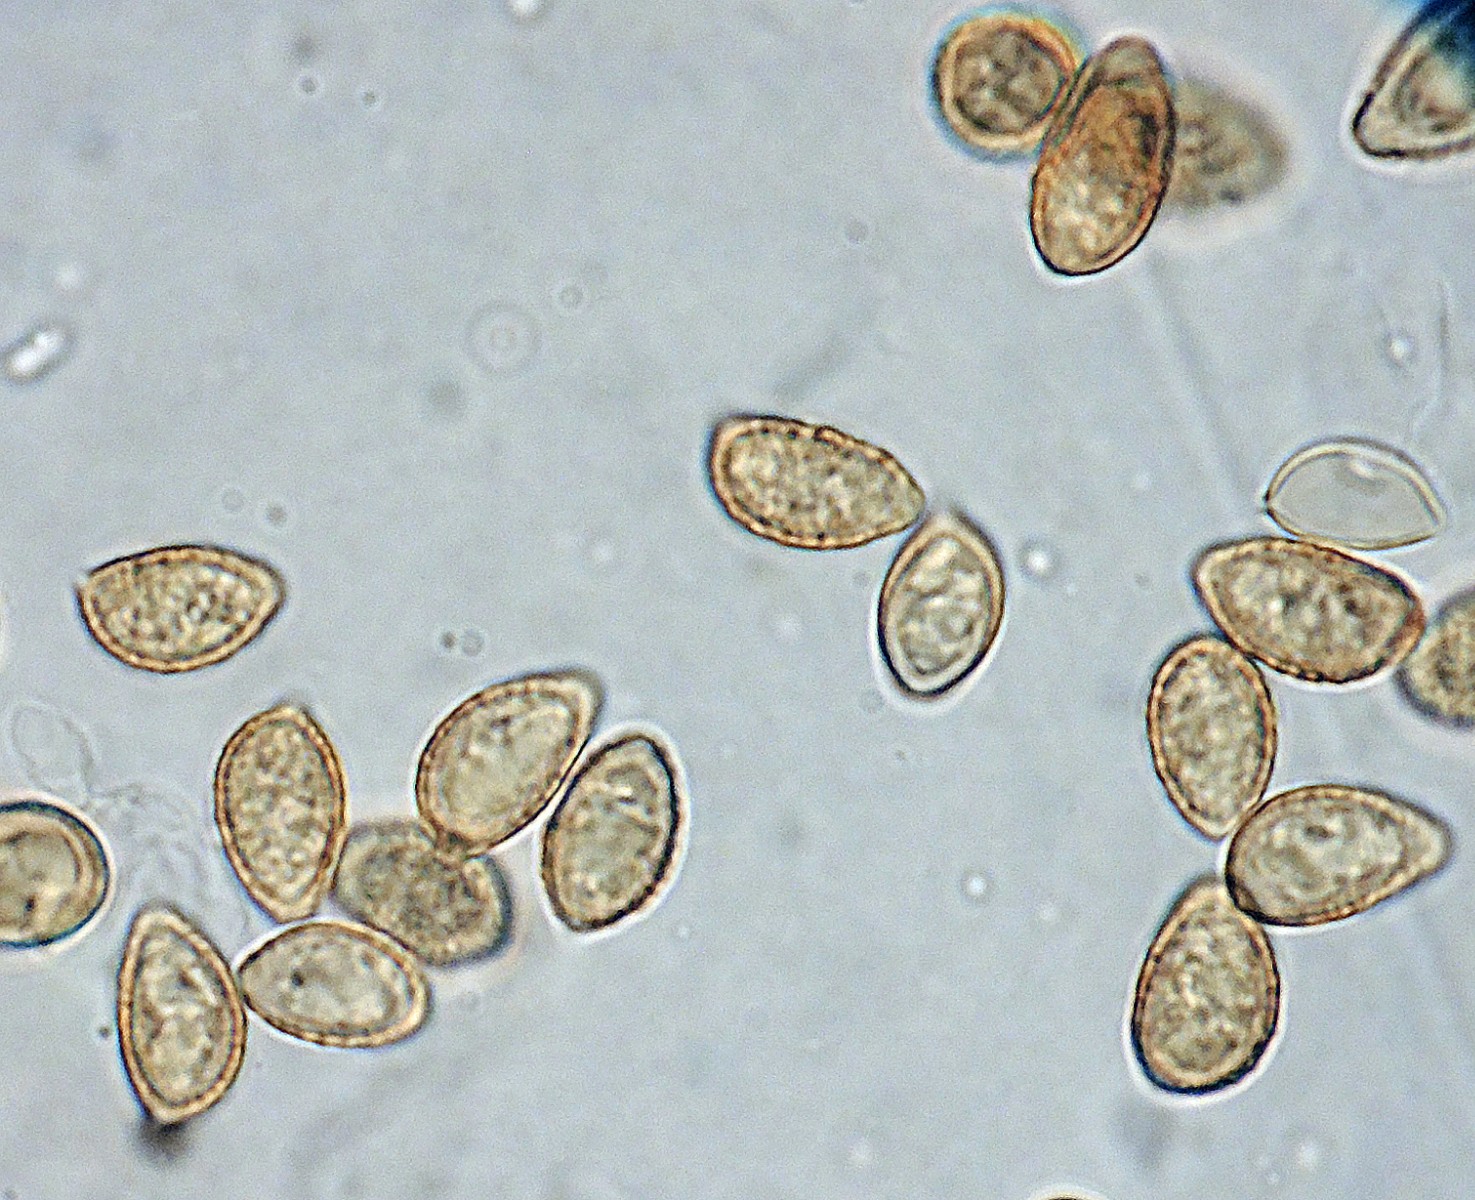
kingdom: Fungi
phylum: Basidiomycota
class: Agaricomycetes
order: Agaricales
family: Hymenogastraceae
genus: Hebeloma
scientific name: Hebeloma leucosarx
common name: højstokket tåreblad
